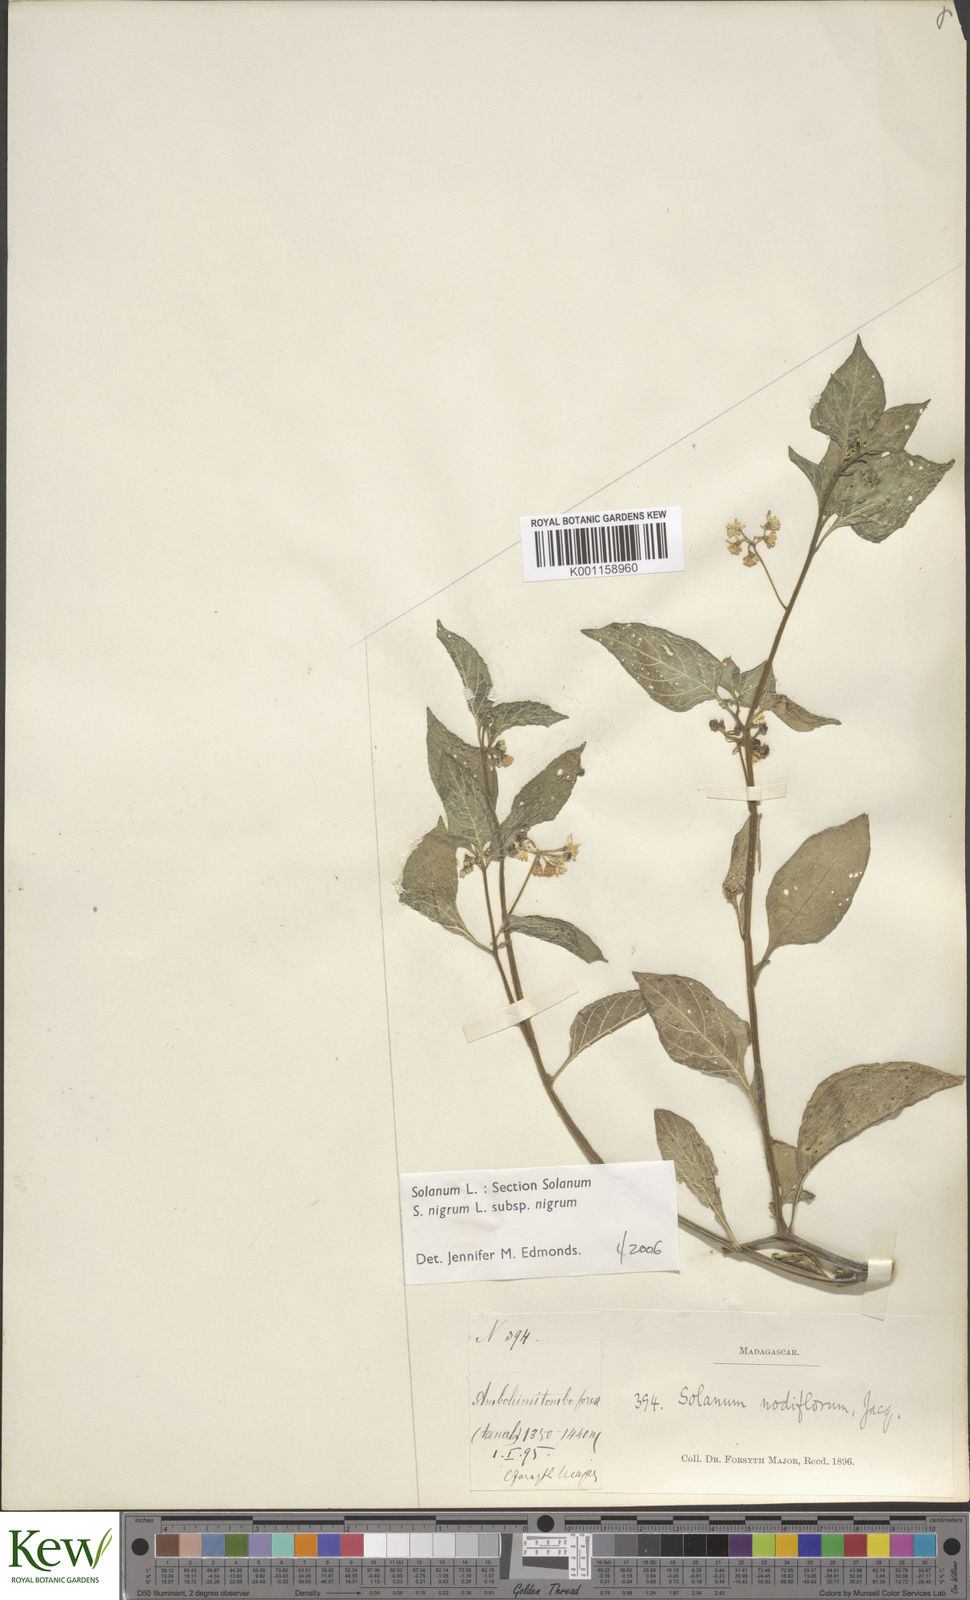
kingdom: Plantae
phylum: Tracheophyta
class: Magnoliopsida
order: Solanales
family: Solanaceae
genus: Solanum
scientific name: Solanum nigrum
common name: Black nightshade
